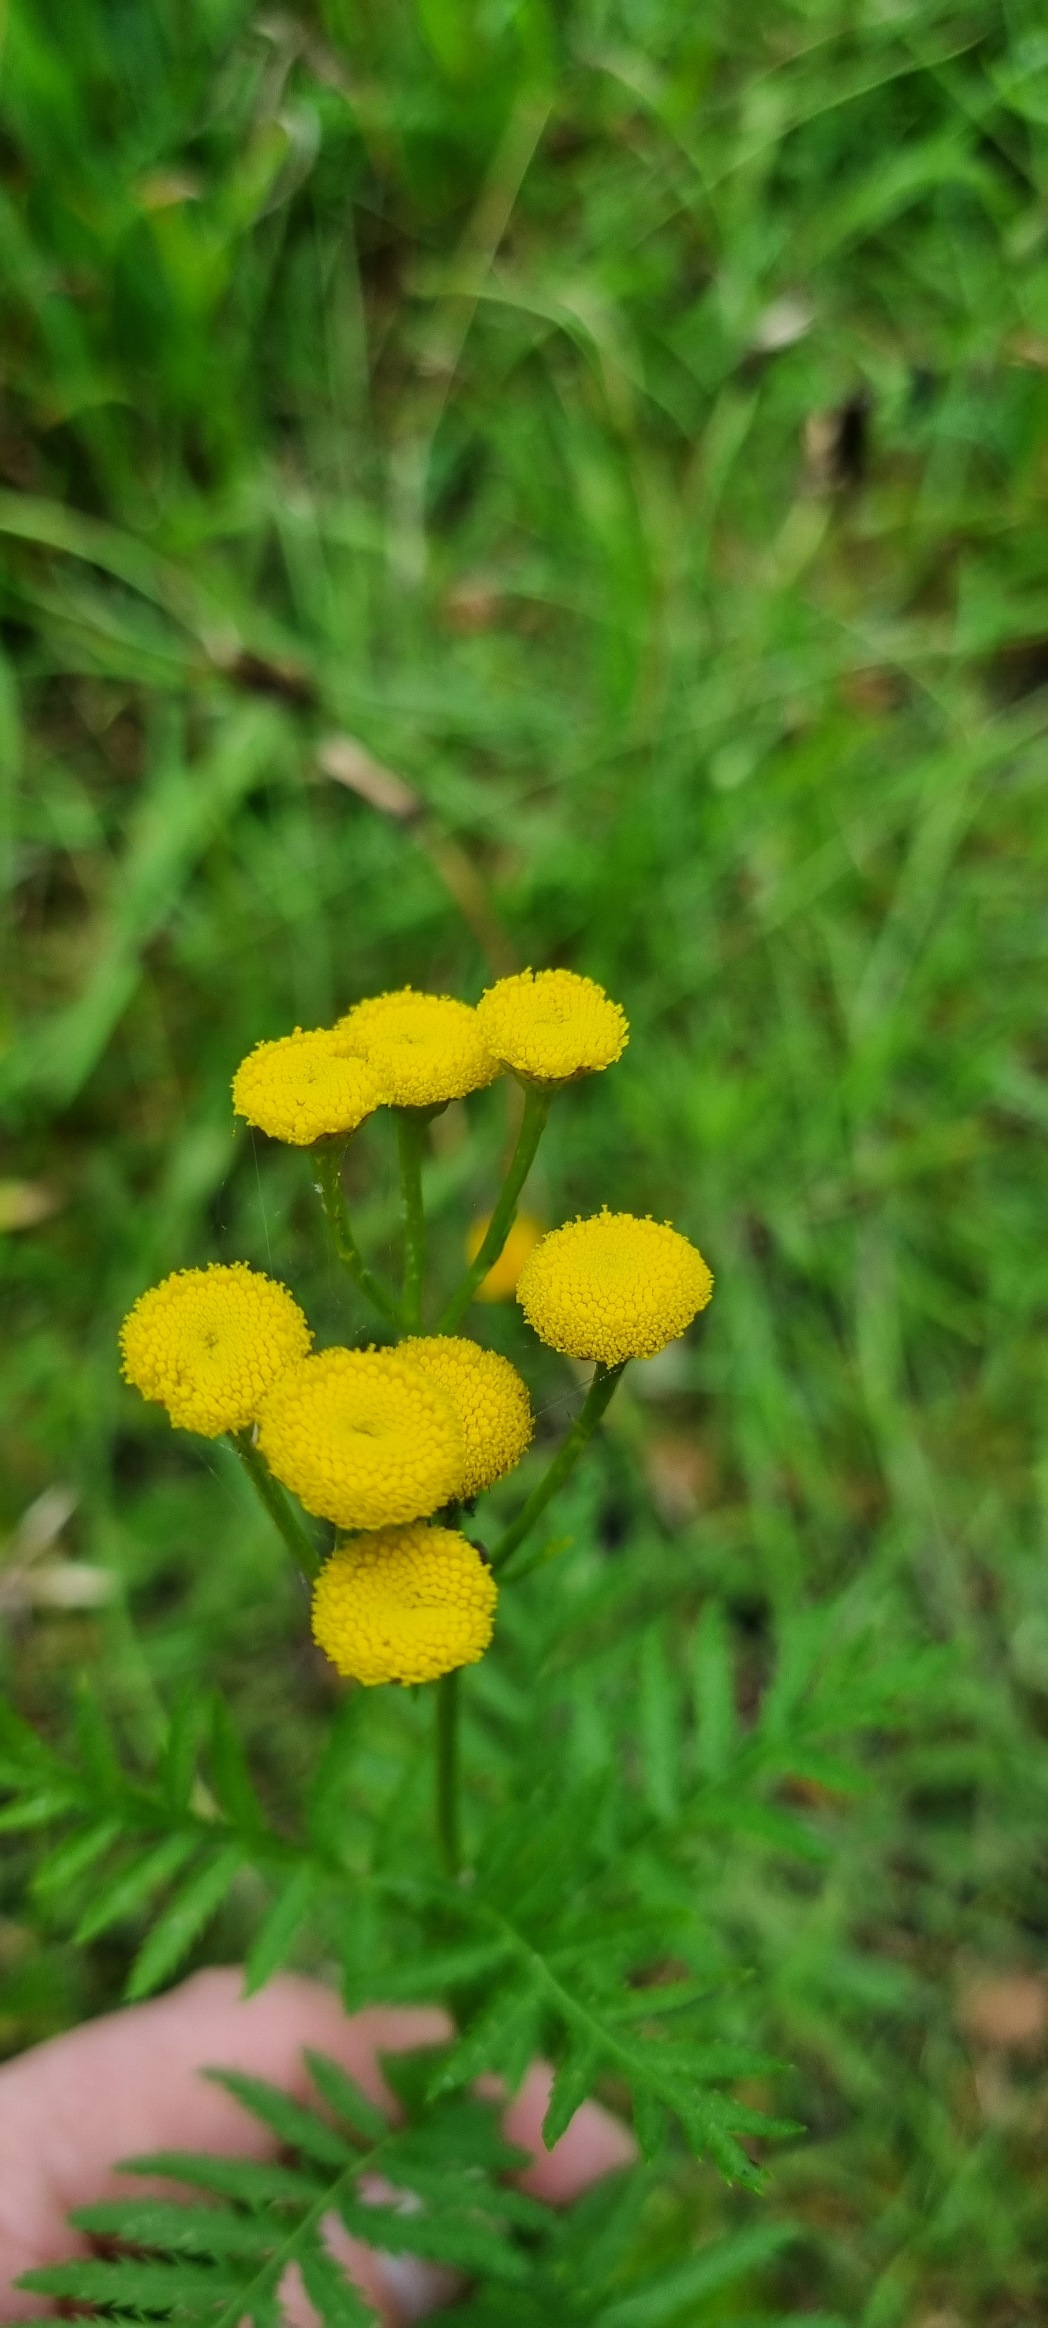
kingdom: Plantae
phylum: Tracheophyta
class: Magnoliopsida
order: Asterales
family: Asteraceae
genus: Tanacetum
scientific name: Tanacetum vulgare
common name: Rejnfan
